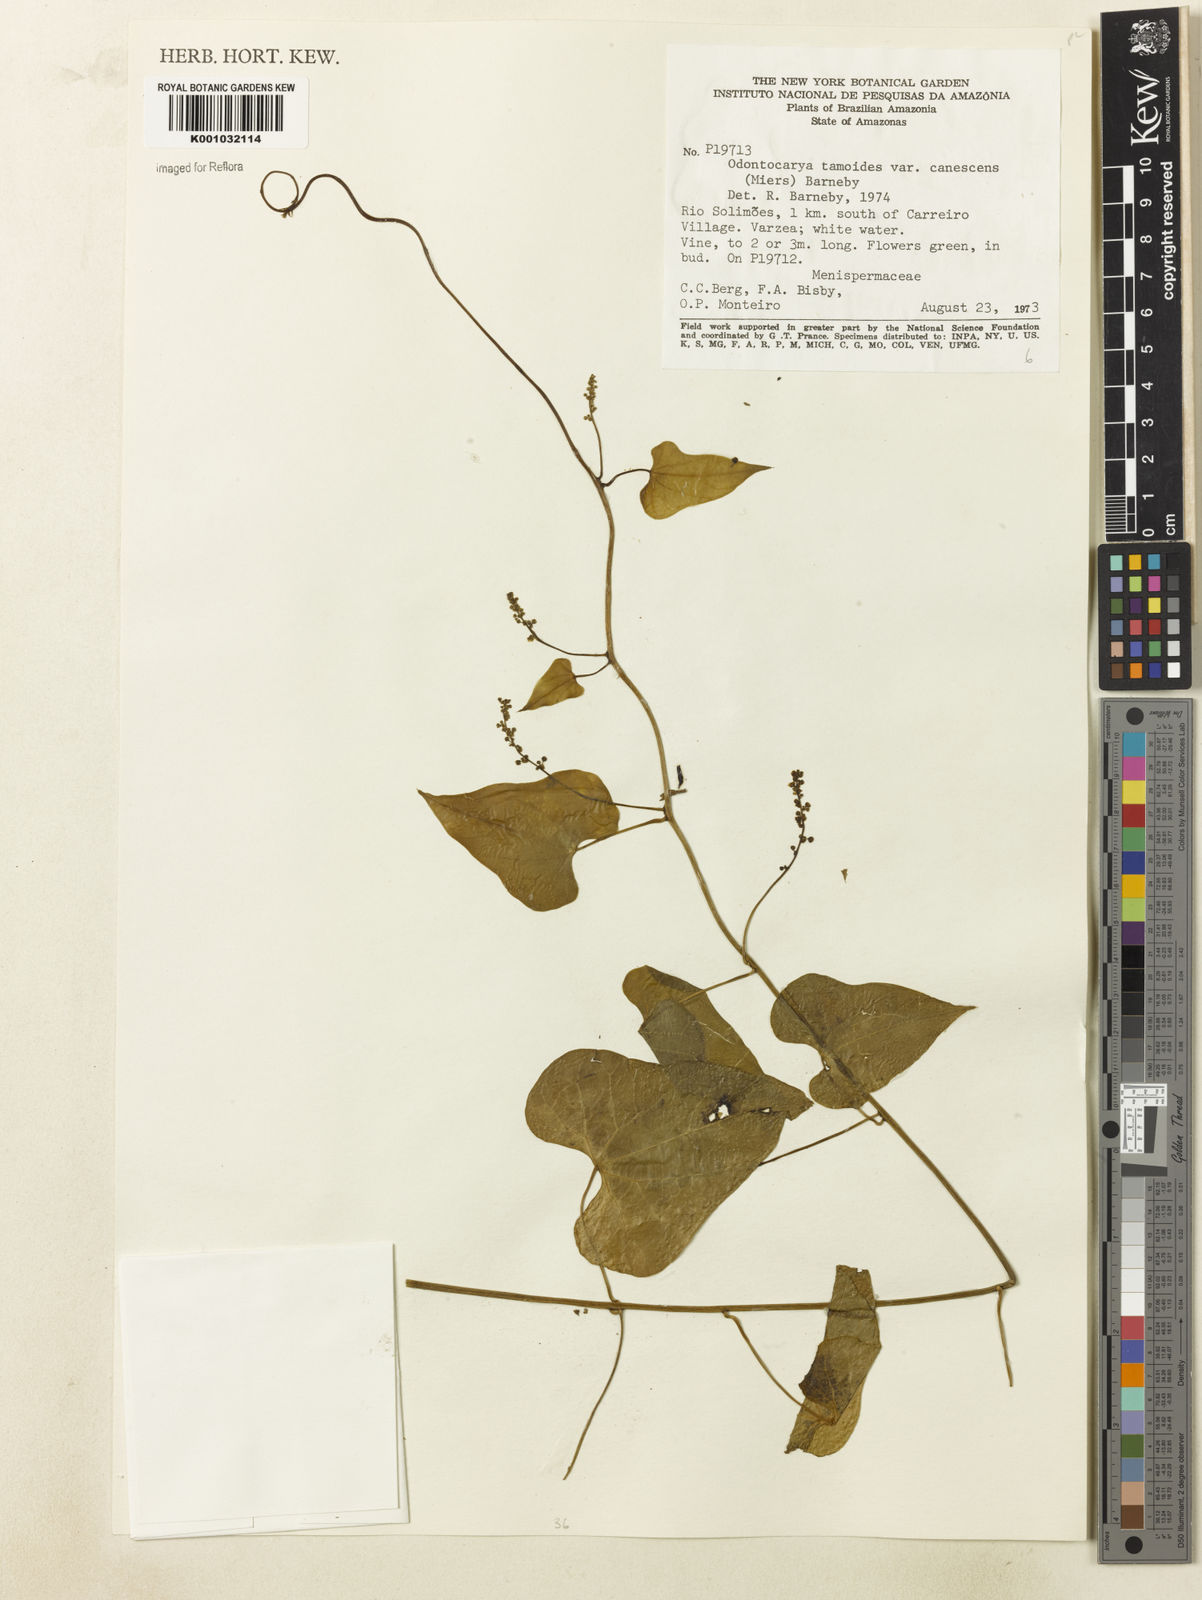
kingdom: Plantae
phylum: Tracheophyta
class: Magnoliopsida
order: Ranunculales
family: Menispermaceae
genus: Odontocarya
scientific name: Odontocarya tamoides
